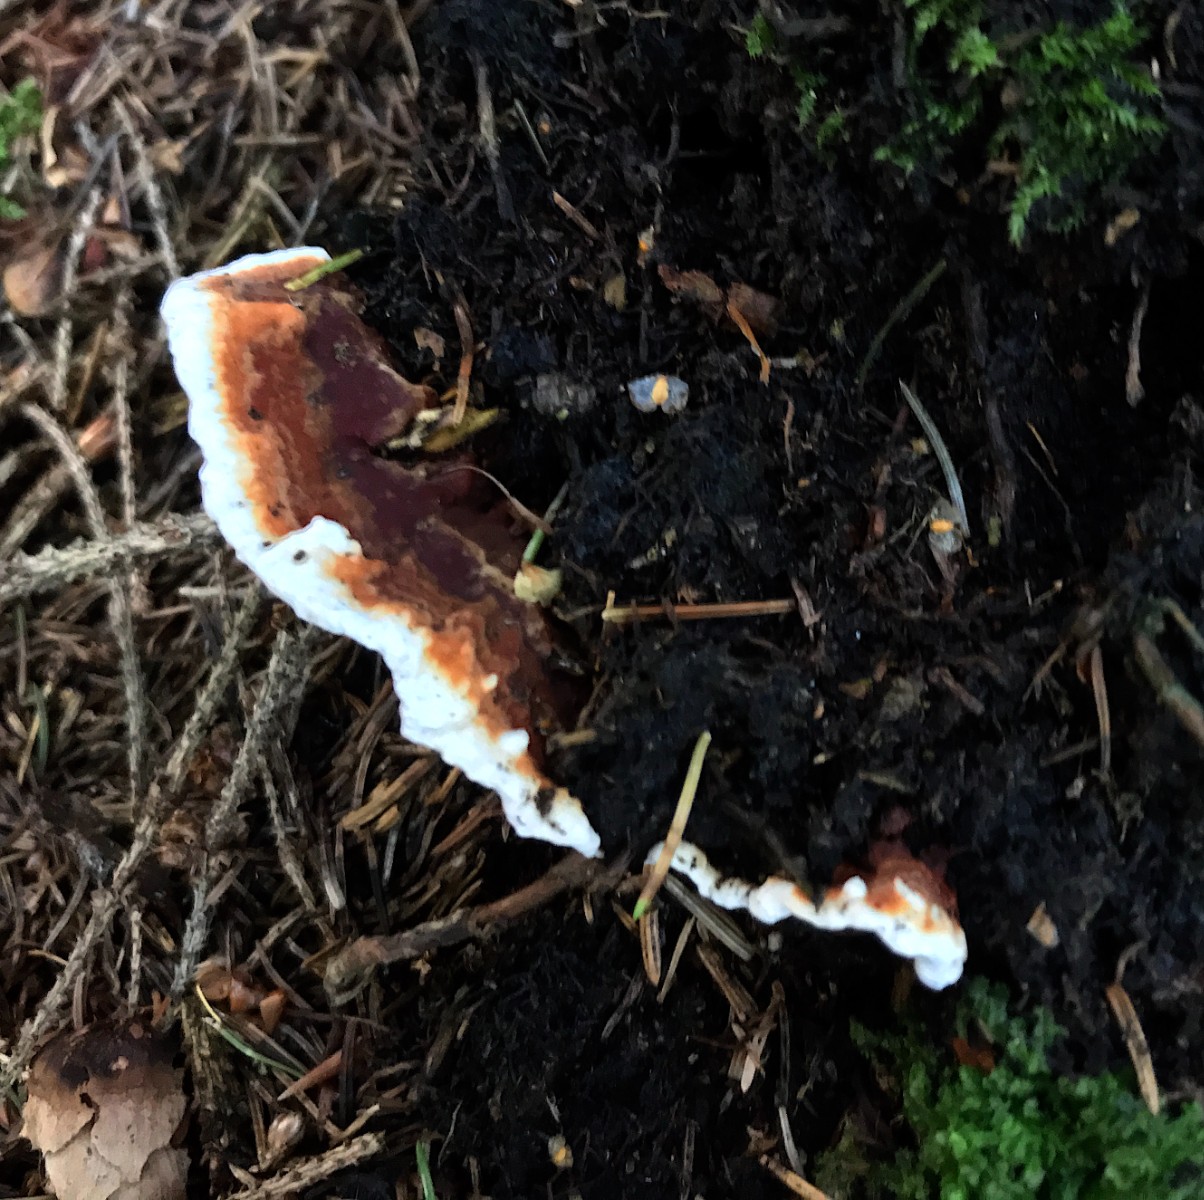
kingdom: Fungi
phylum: Basidiomycota
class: Agaricomycetes
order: Russulales
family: Bondarzewiaceae
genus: Heterobasidion
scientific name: Heterobasidion annosum
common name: almindelig rodfordærver
